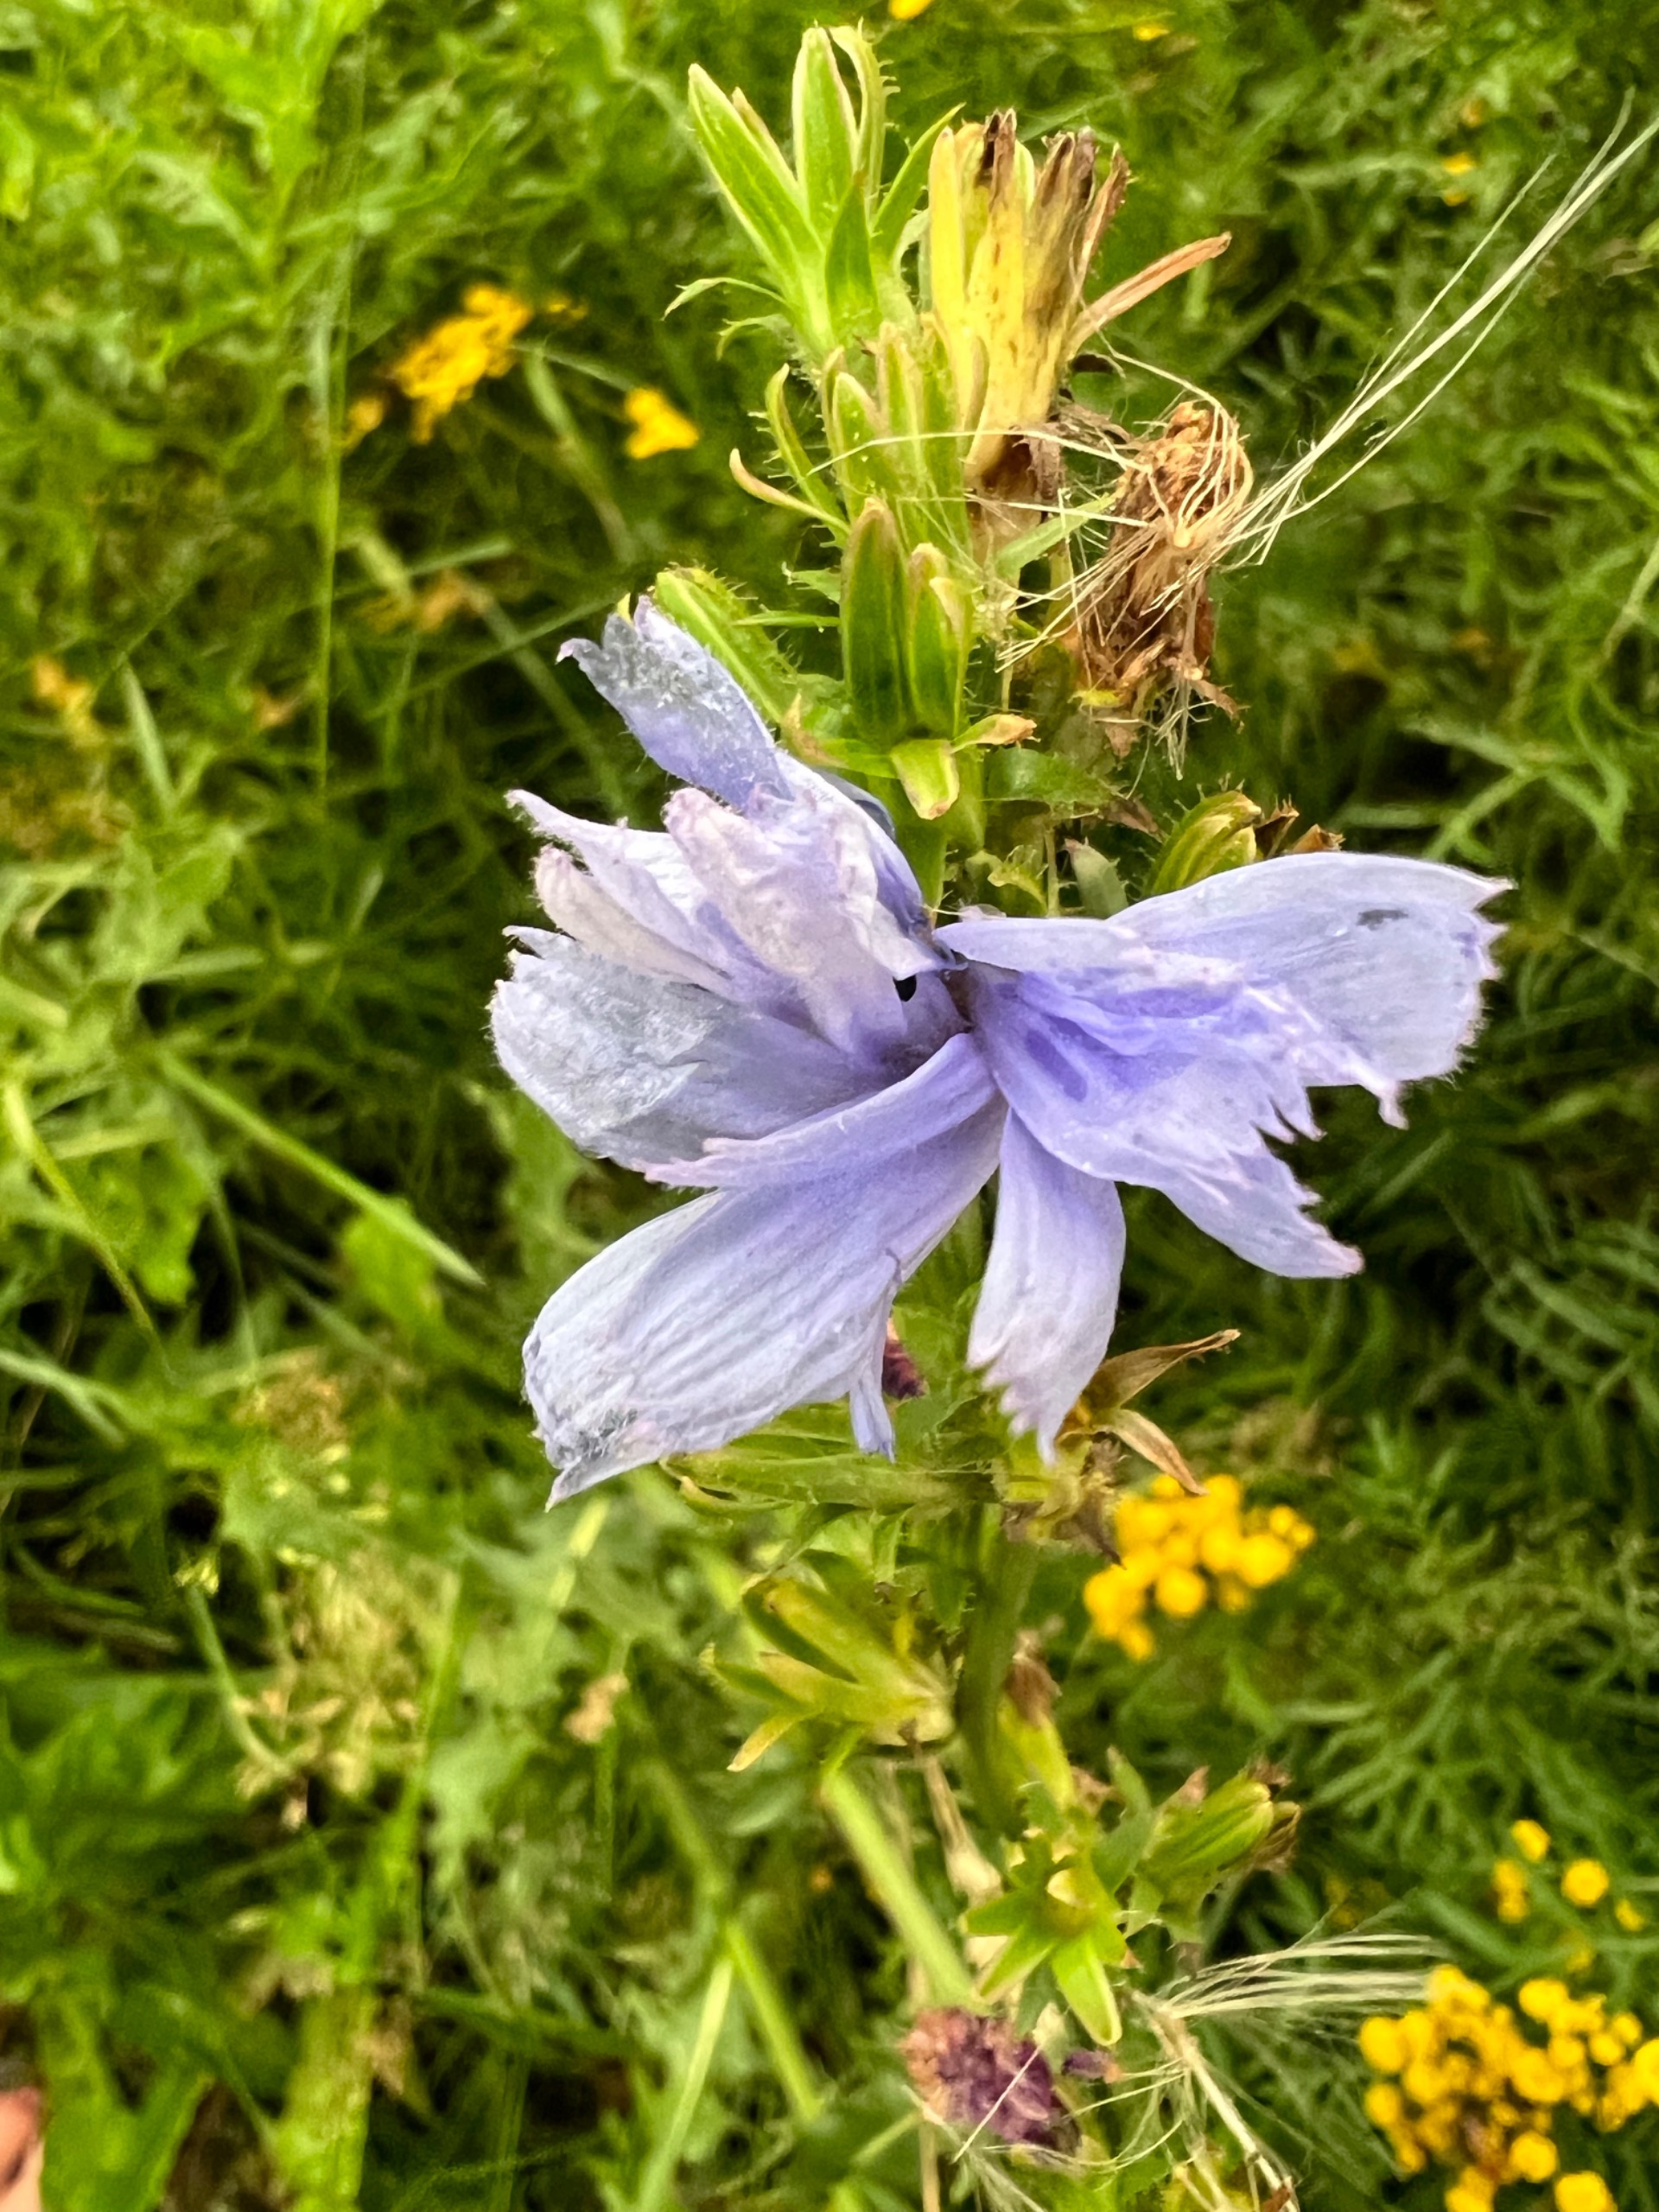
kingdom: Plantae
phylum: Tracheophyta
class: Magnoliopsida
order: Asterales
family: Asteraceae
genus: Cichorium
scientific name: Cichorium intybus
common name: Cikorie
